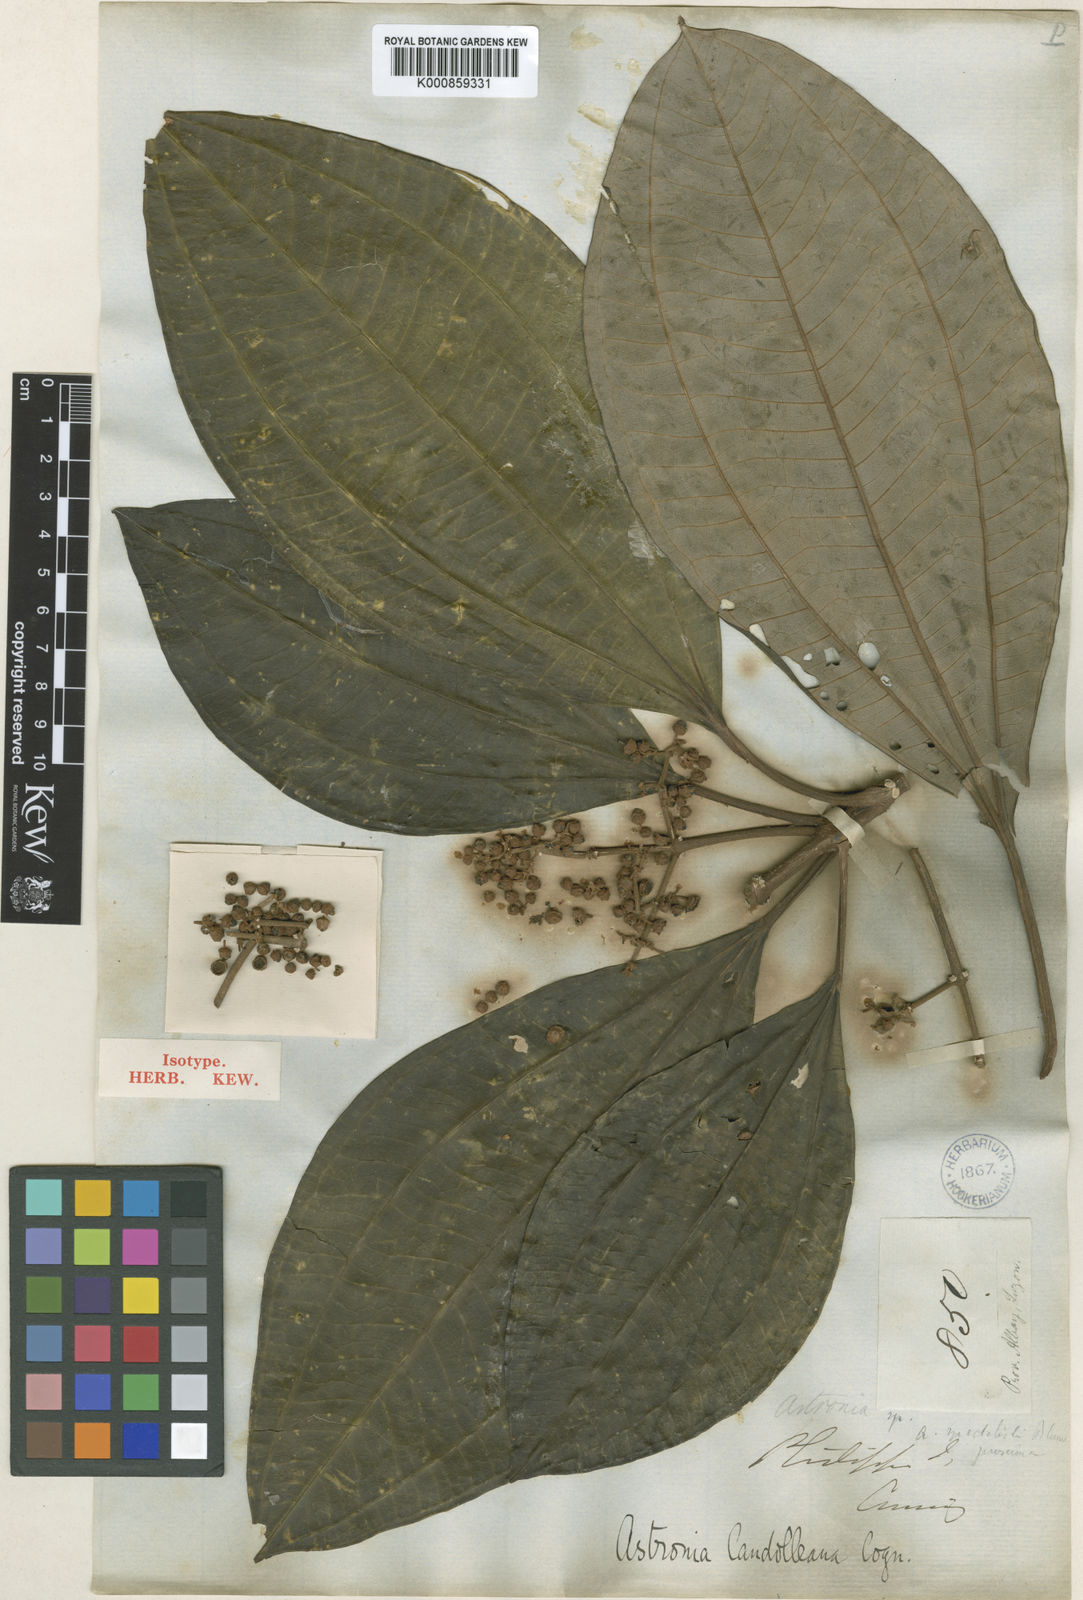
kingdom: Plantae
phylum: Tracheophyta
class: Magnoliopsida
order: Myrtales
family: Melastomataceae
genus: Astronia
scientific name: Astronia candolleana
